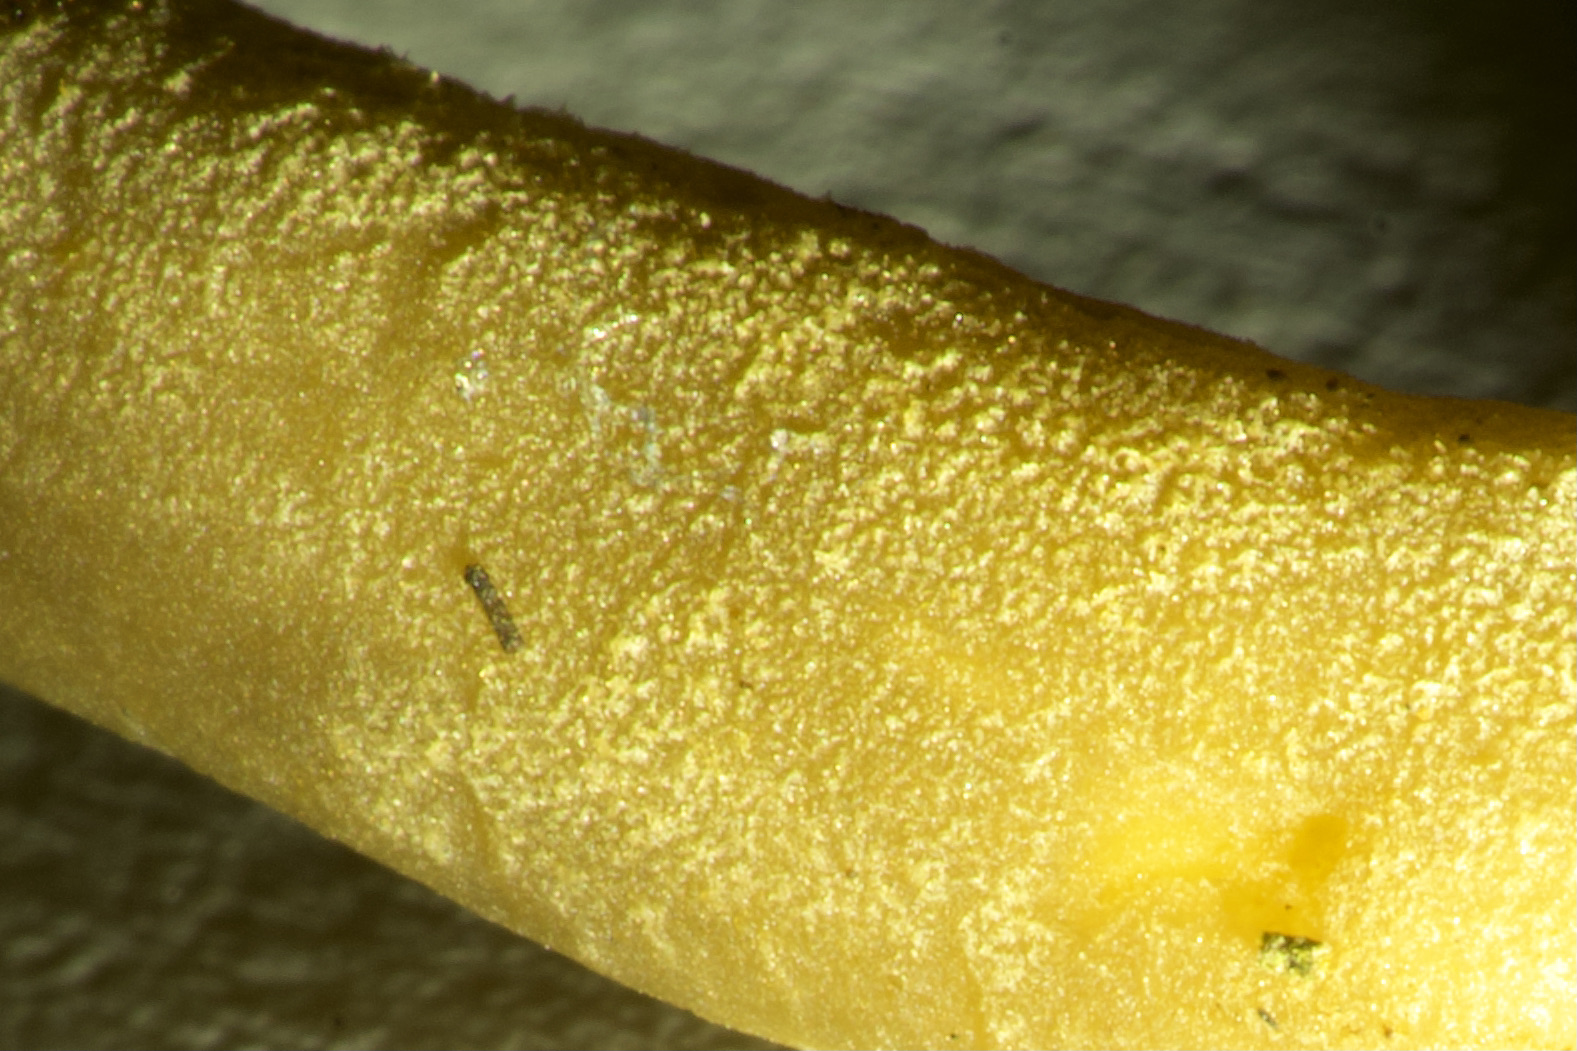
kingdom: Fungi
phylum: Ascomycota
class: Pezizomycetes
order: Pezizales
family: Helvellaceae
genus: Helvella
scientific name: Helvella atra
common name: sort foldhat
